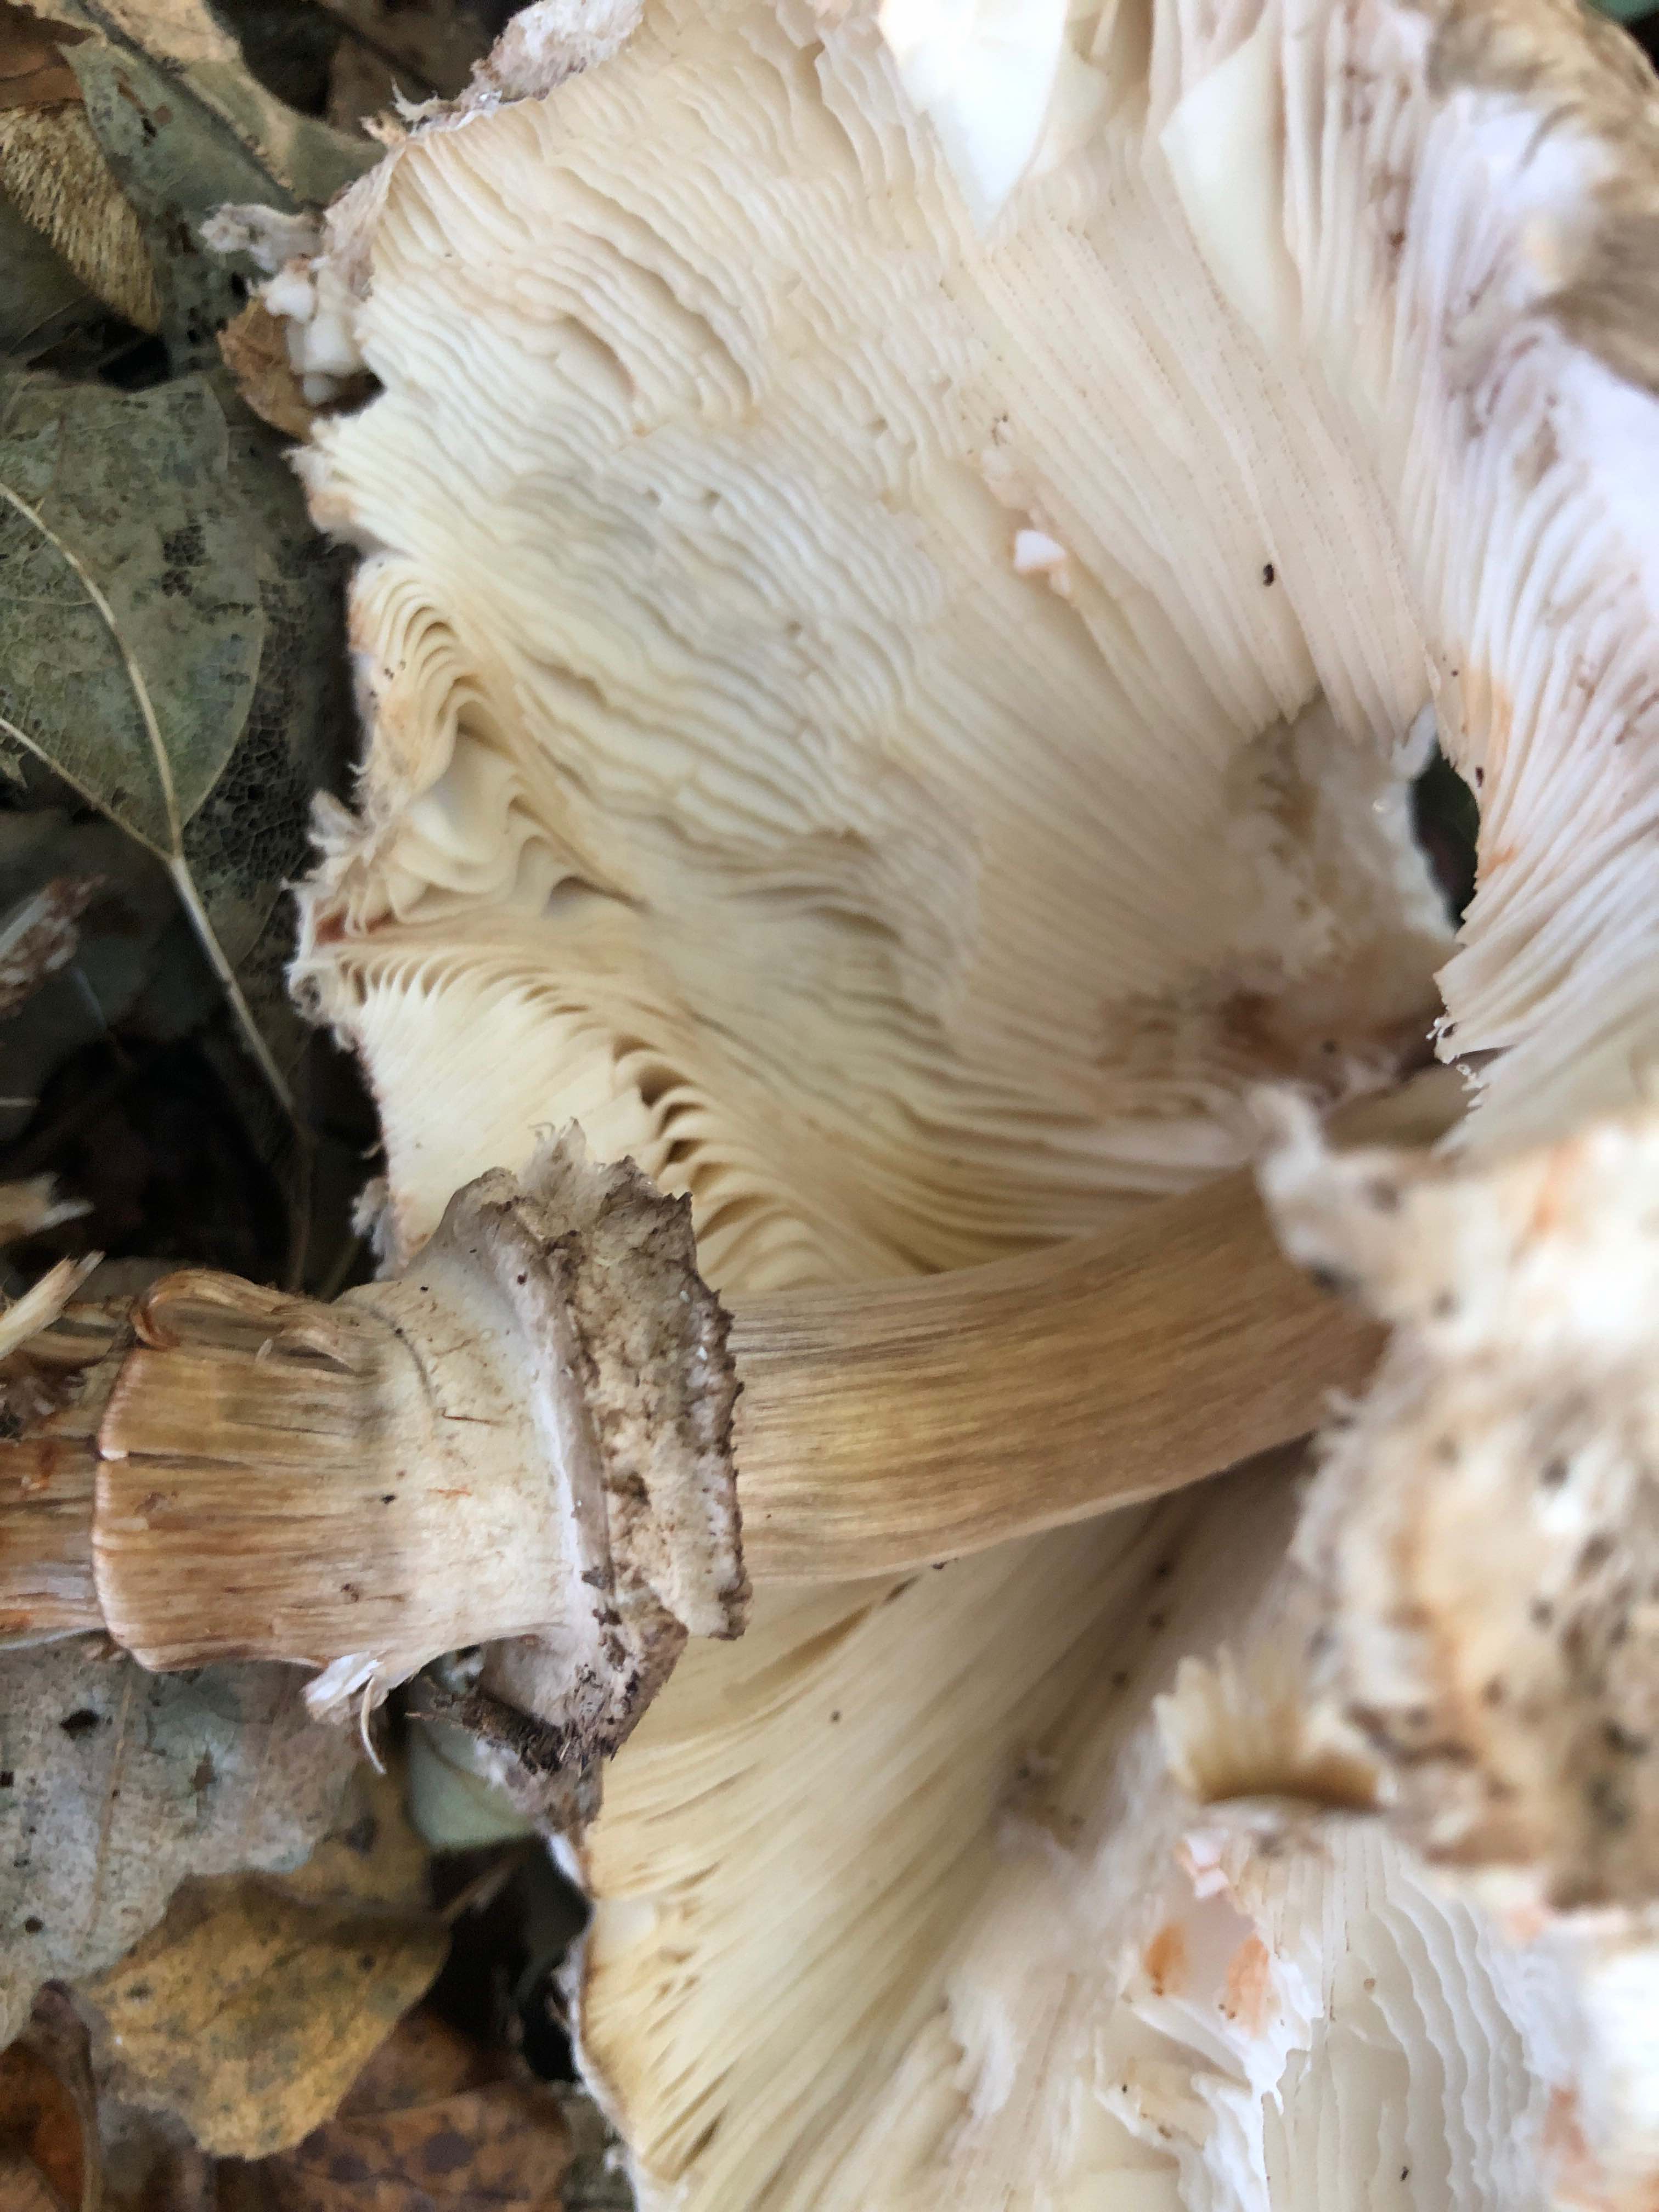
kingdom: Fungi
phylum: Basidiomycota
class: Agaricomycetes
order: Agaricales
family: Agaricaceae
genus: Chlorophyllum
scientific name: Chlorophyllum olivieri
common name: almindelig rabarberhat
